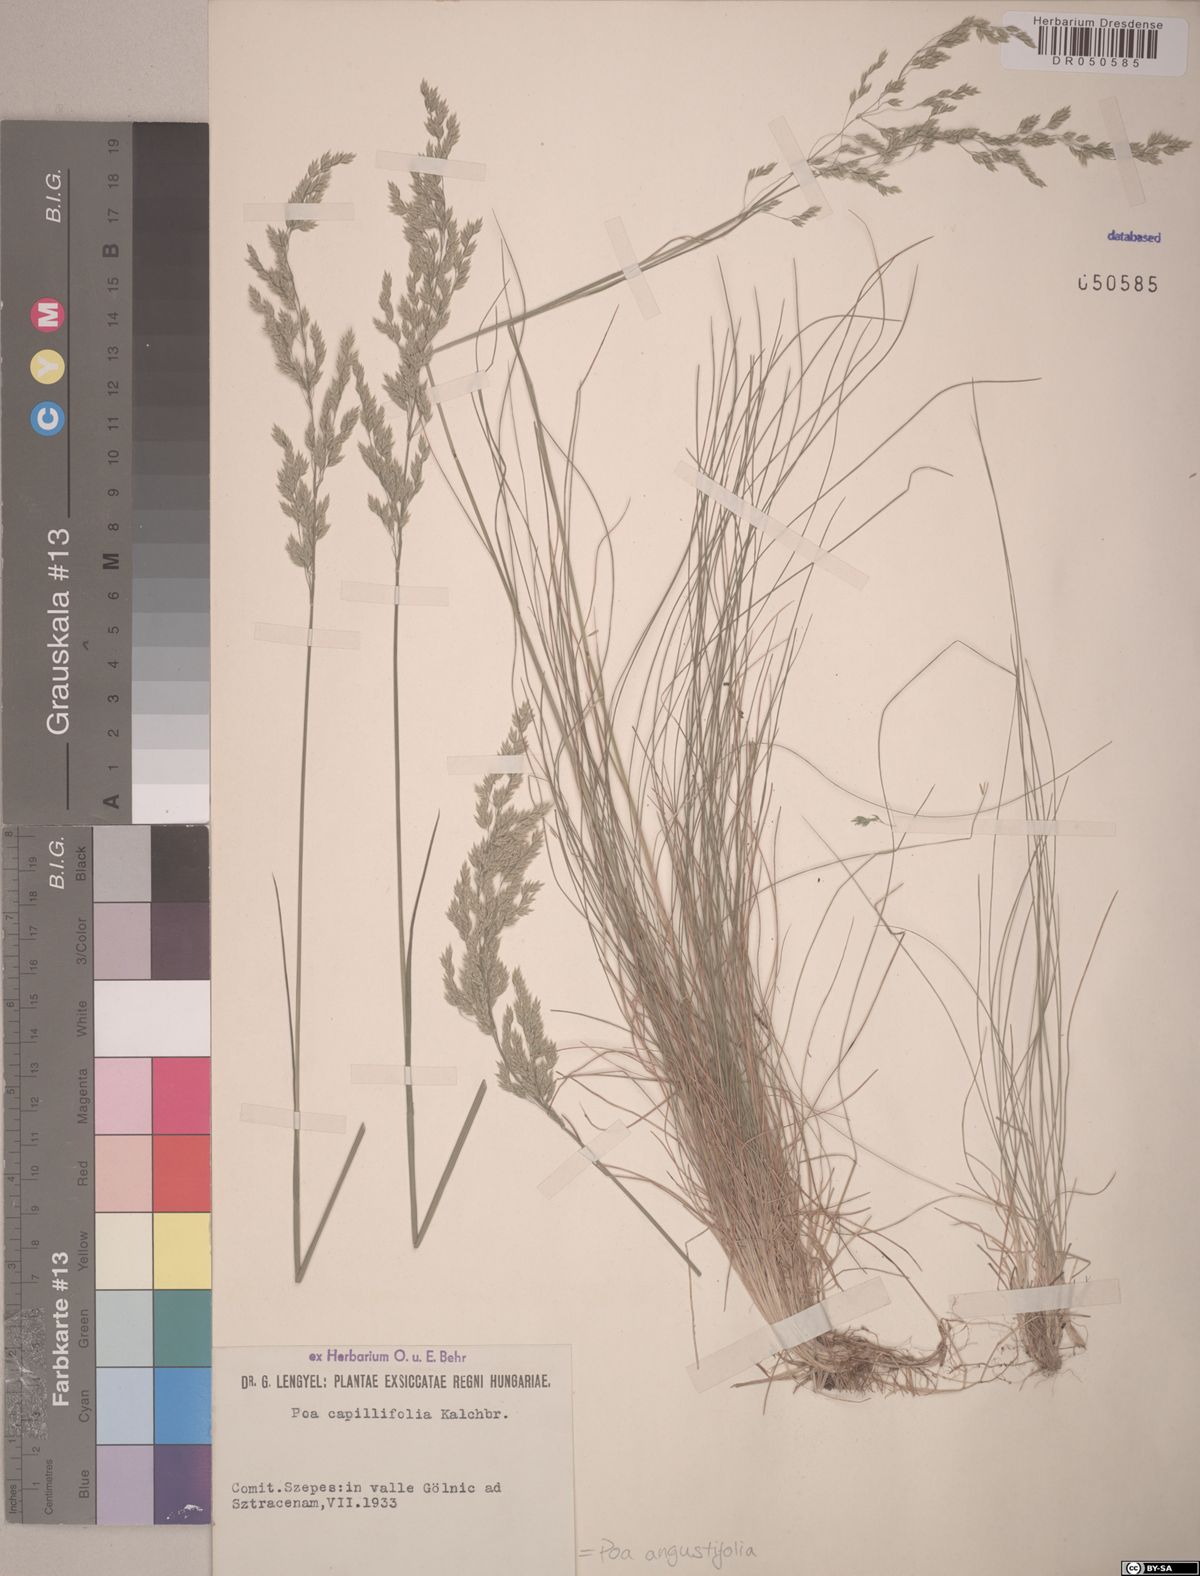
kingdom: Plantae
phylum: Tracheophyta
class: Liliopsida
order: Poales
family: Poaceae
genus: Poa
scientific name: Poa angustifolia
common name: Narrow-leaved meadow-grass
